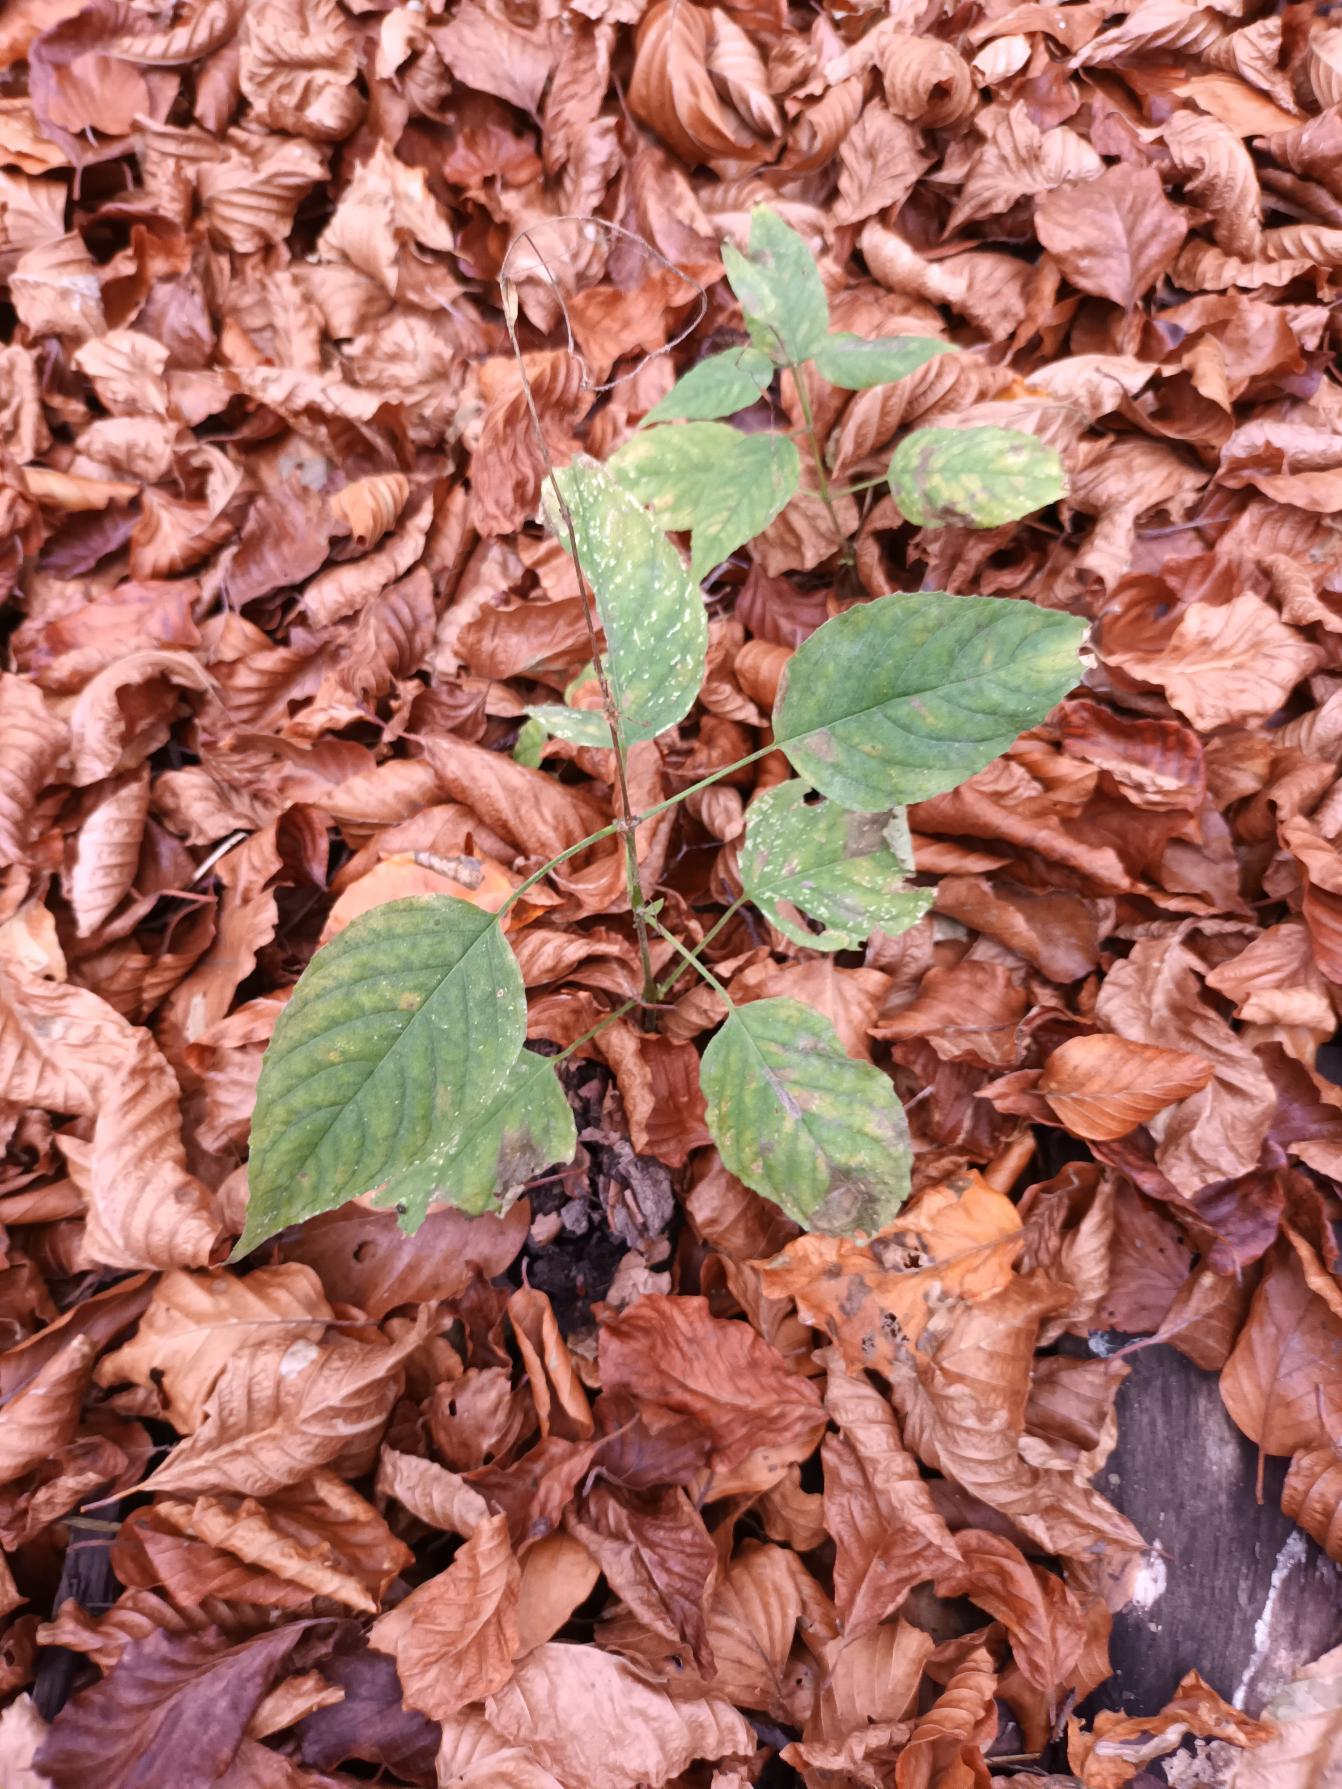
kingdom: Plantae
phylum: Tracheophyta
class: Magnoliopsida
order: Myrtales
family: Onagraceae
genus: Circaea
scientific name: Circaea lutetiana
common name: Dunet steffensurt
